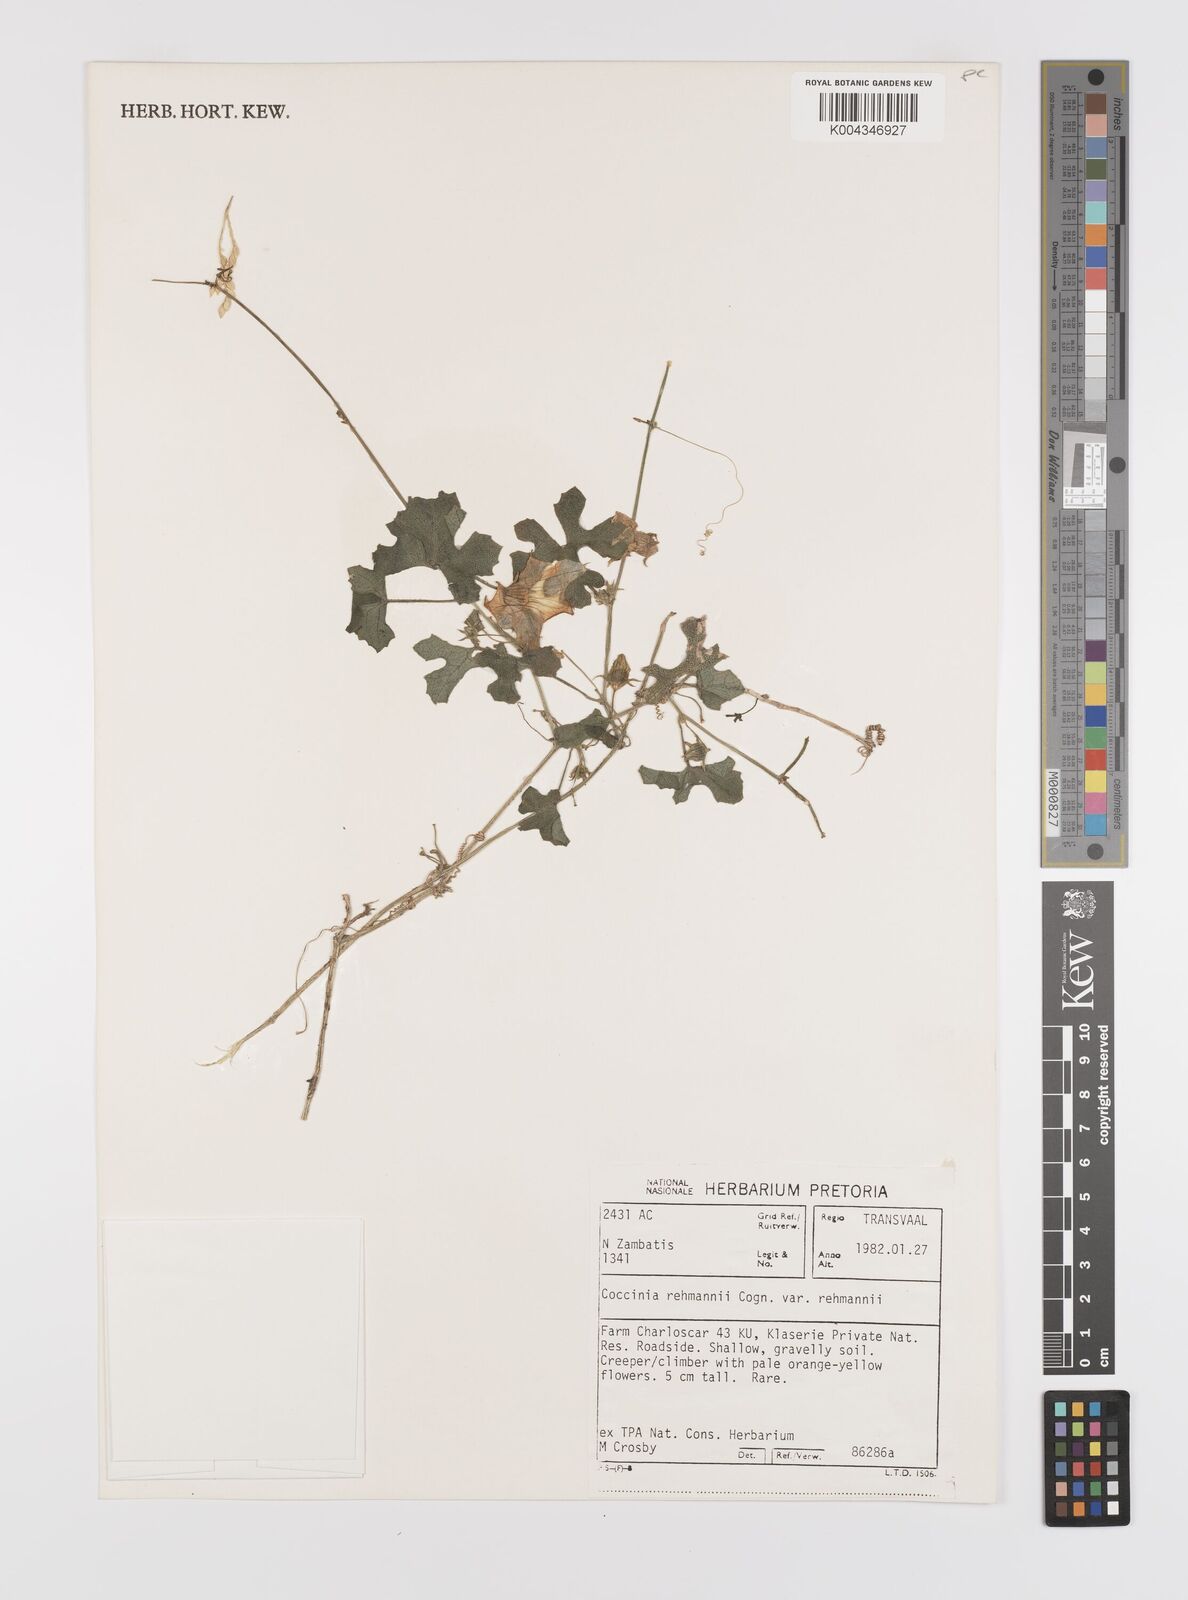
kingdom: Plantae
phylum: Tracheophyta
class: Magnoliopsida
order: Cucurbitales
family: Cucurbitaceae
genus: Coccinia
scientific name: Coccinia rehmannii
